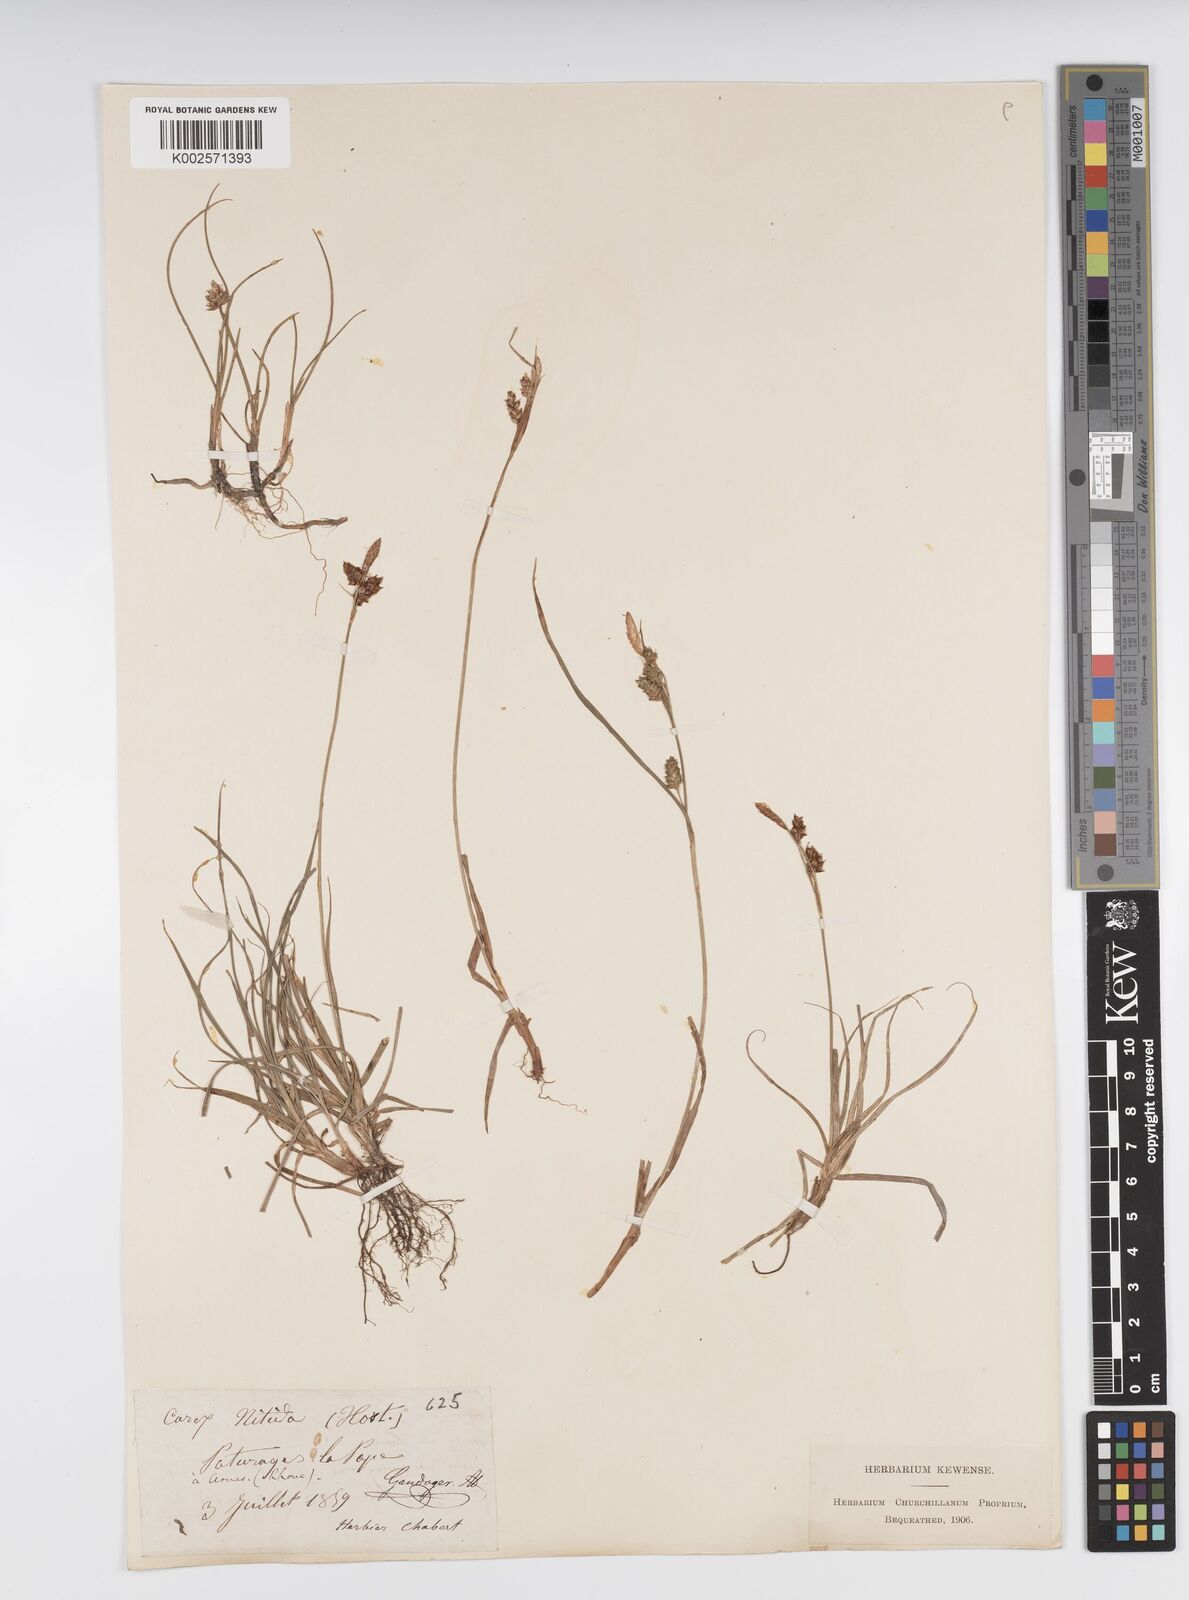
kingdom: Plantae
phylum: Tracheophyta
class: Liliopsida
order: Poales
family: Cyperaceae
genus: Carex
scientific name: Carex liparocarpos
